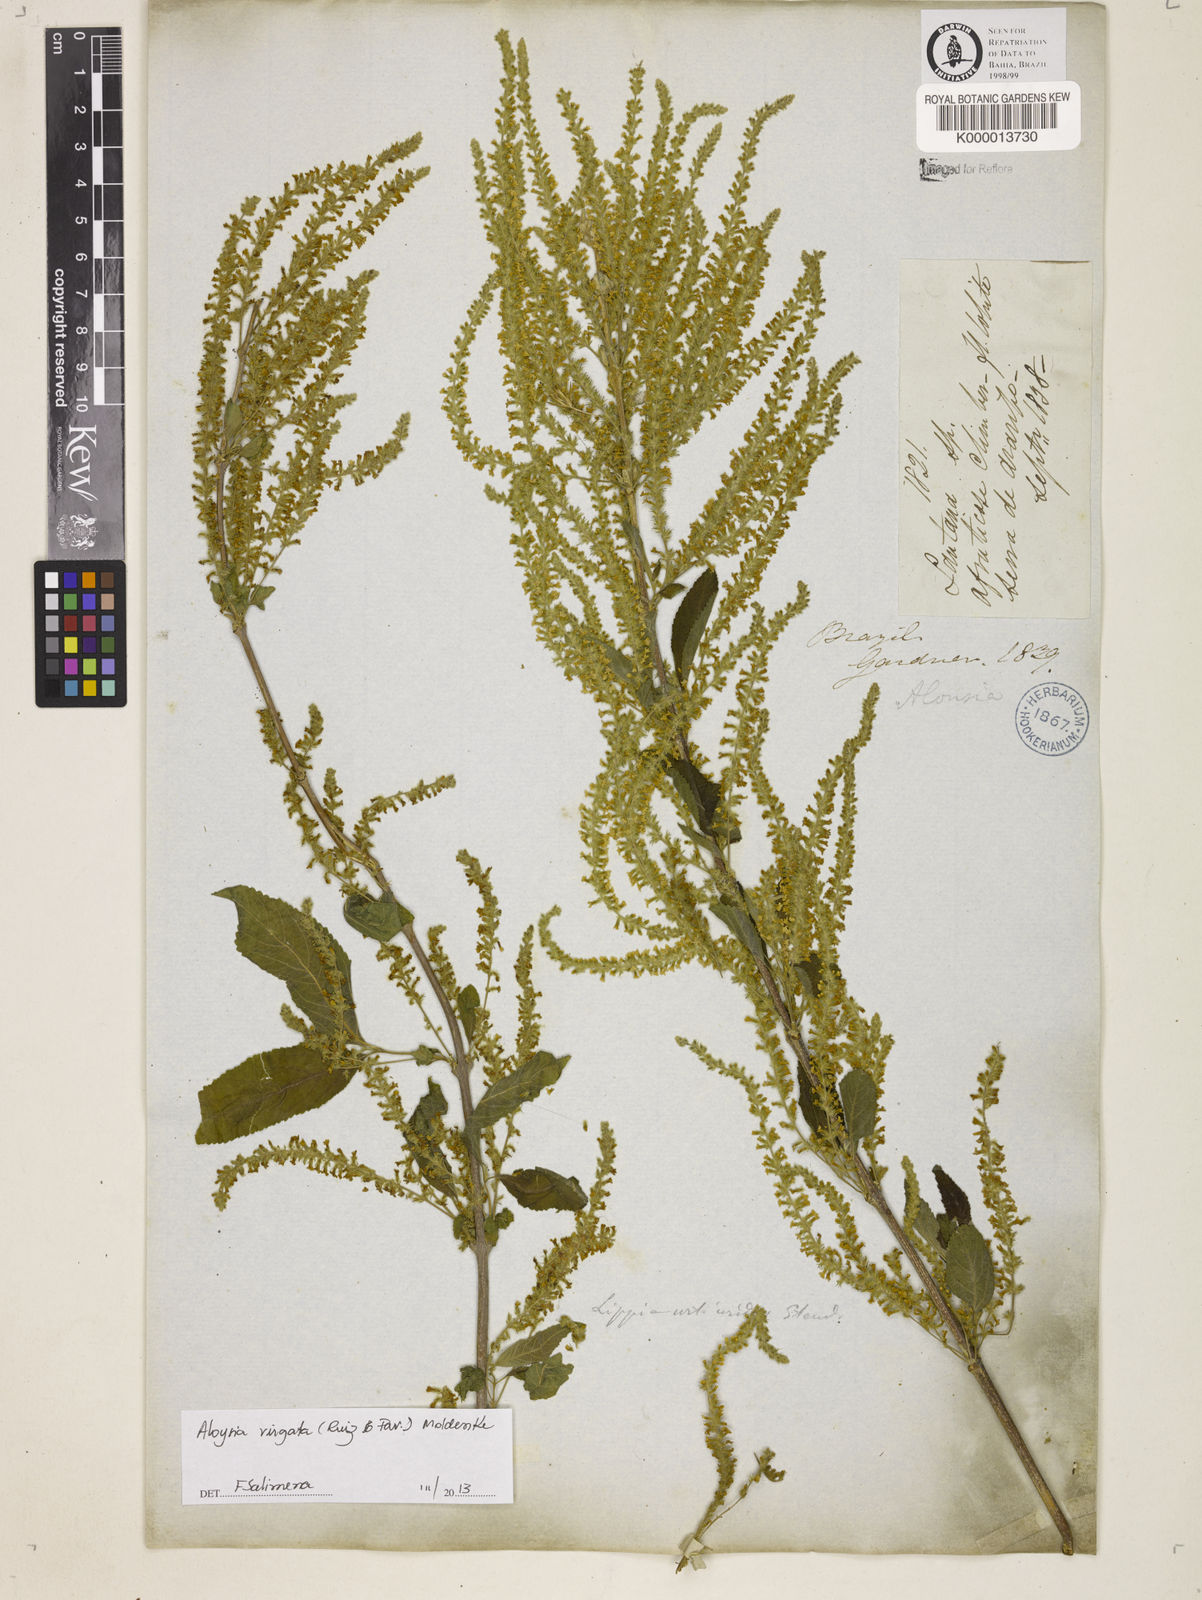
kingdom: Plantae
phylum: Tracheophyta
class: Magnoliopsida
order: Lamiales
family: Verbenaceae
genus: Aloysia
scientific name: Aloysia virgata
